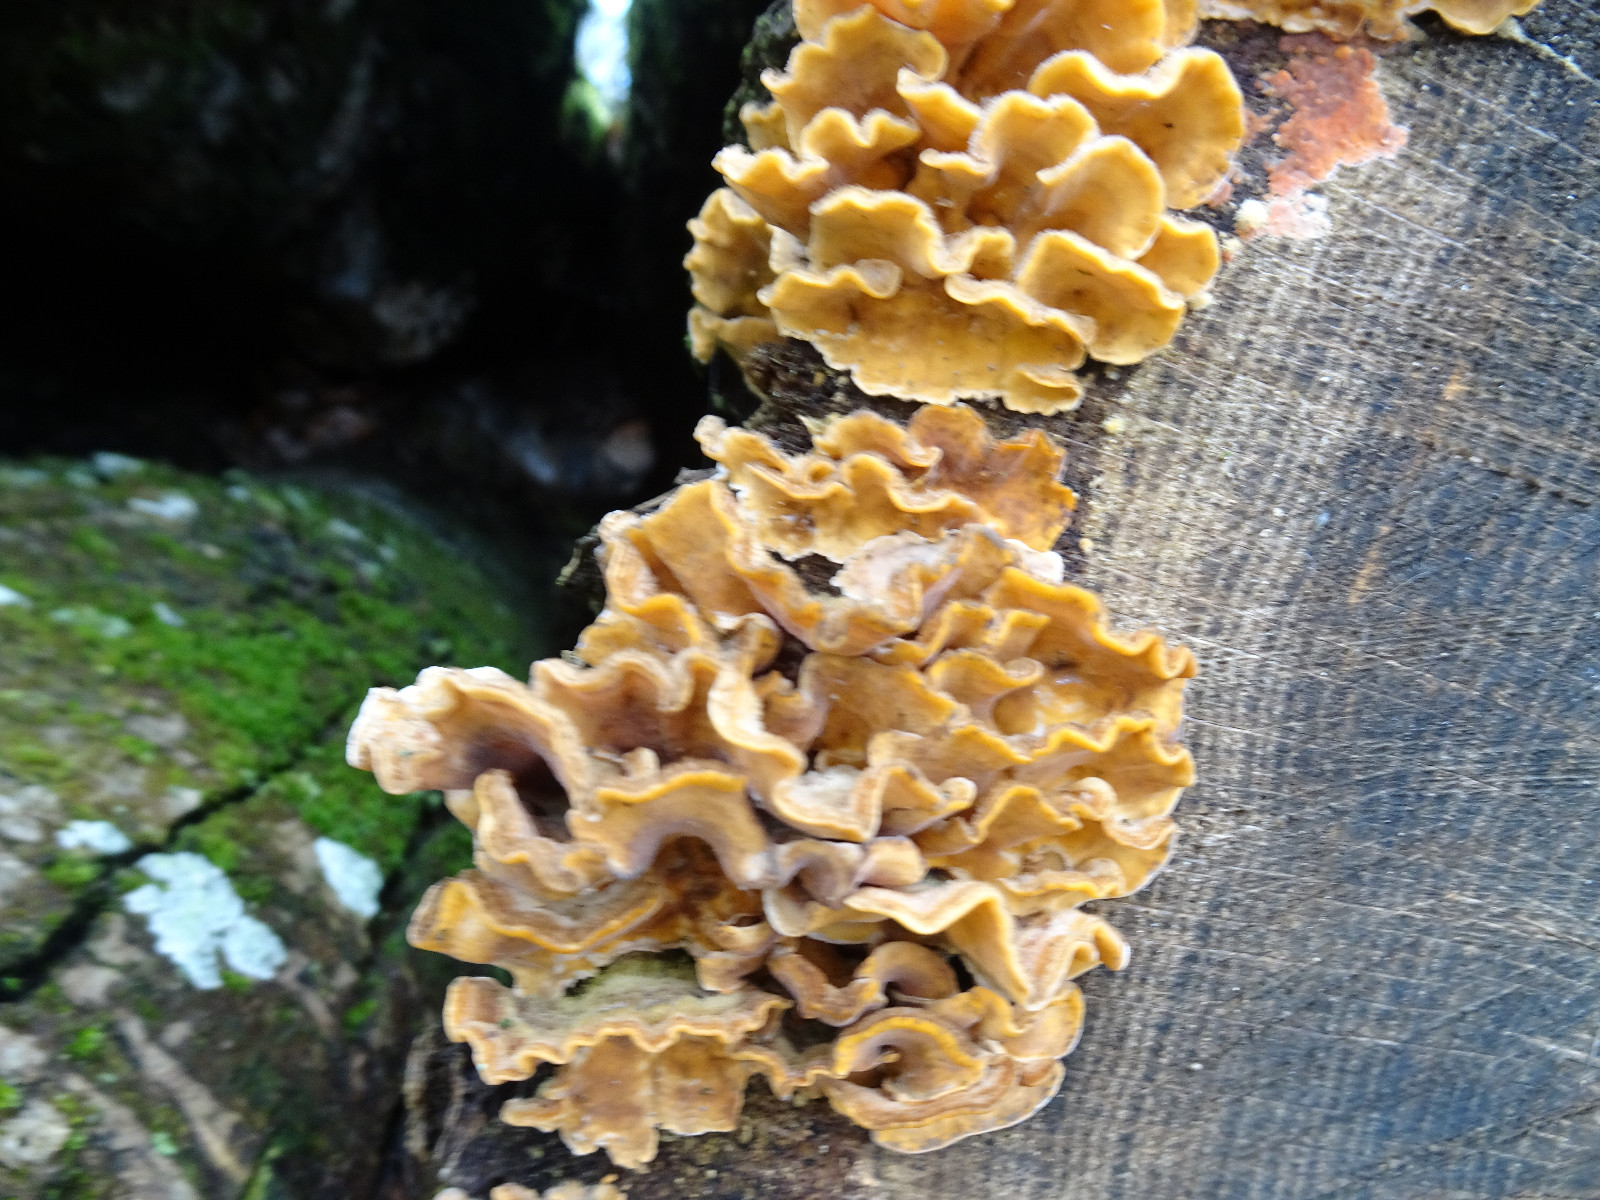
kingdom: Fungi
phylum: Basidiomycota
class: Agaricomycetes
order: Russulales
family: Stereaceae
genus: Stereum
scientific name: Stereum hirsutum
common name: håret lædersvamp
